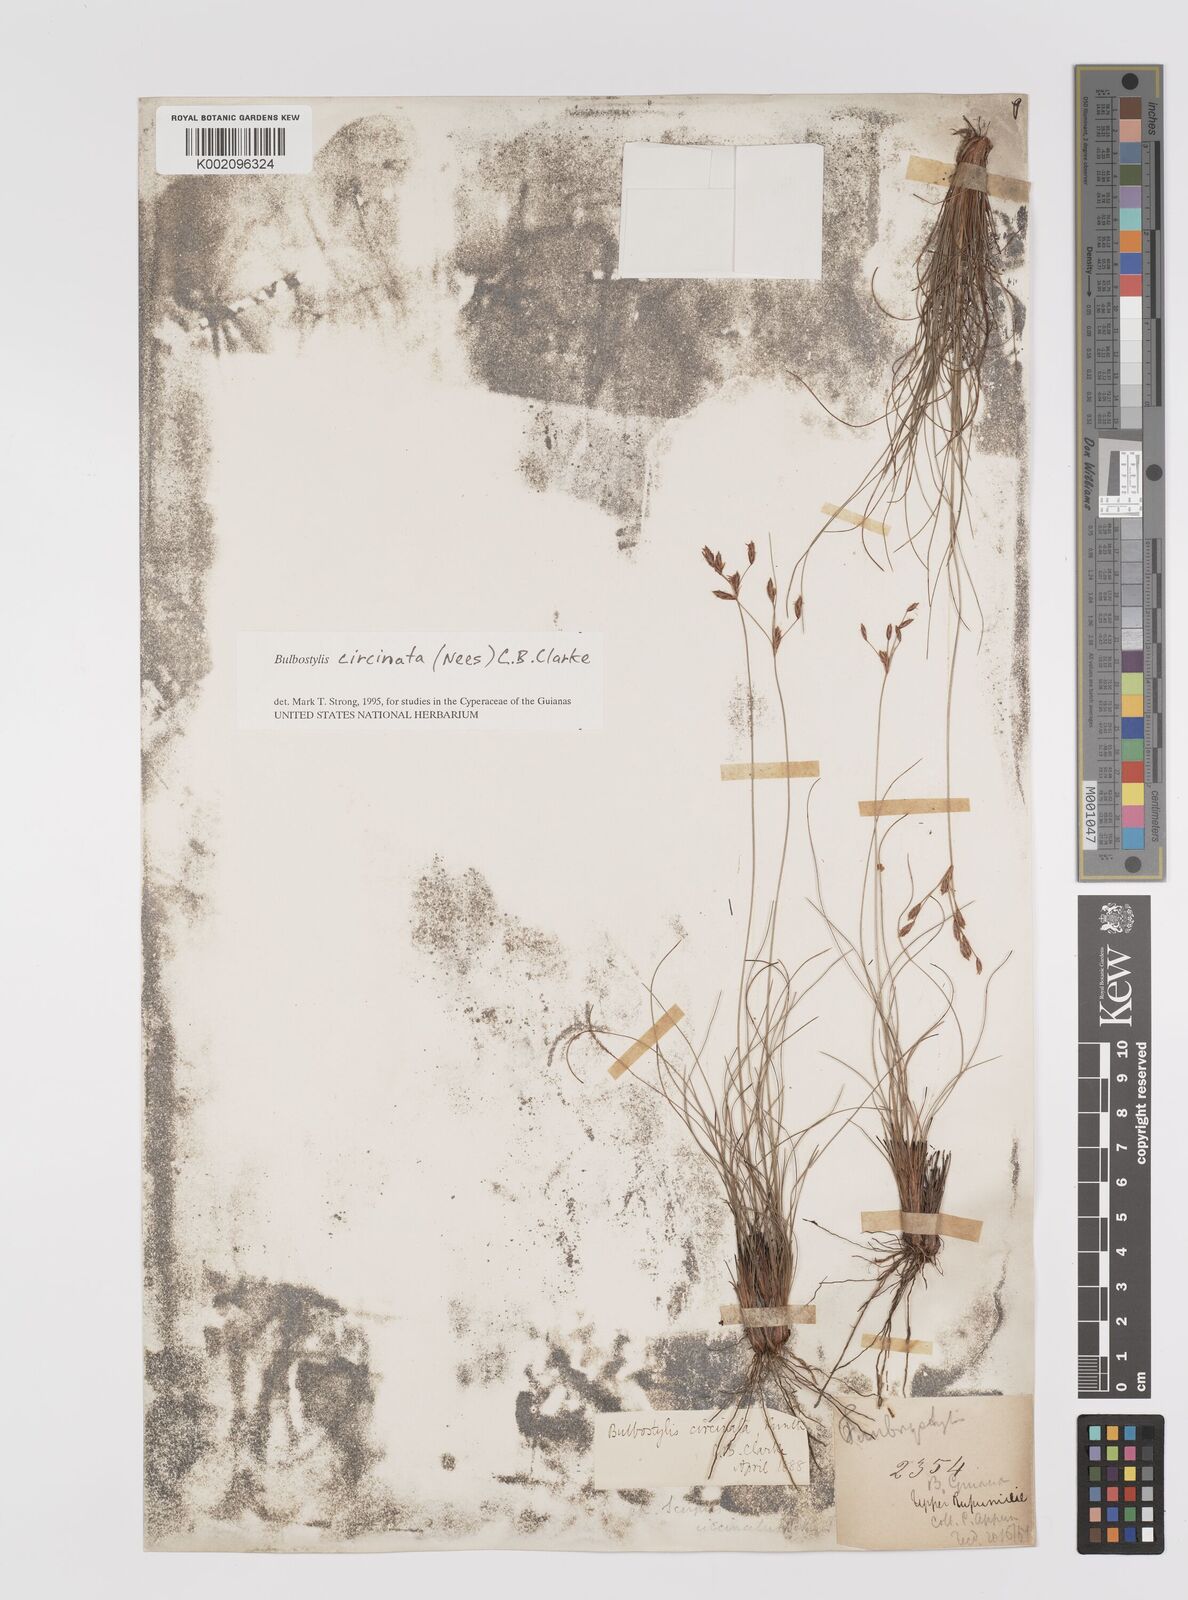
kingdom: Plantae
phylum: Tracheophyta
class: Liliopsida
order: Poales
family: Cyperaceae
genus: Bulbostylis
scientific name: Bulbostylis circinata
